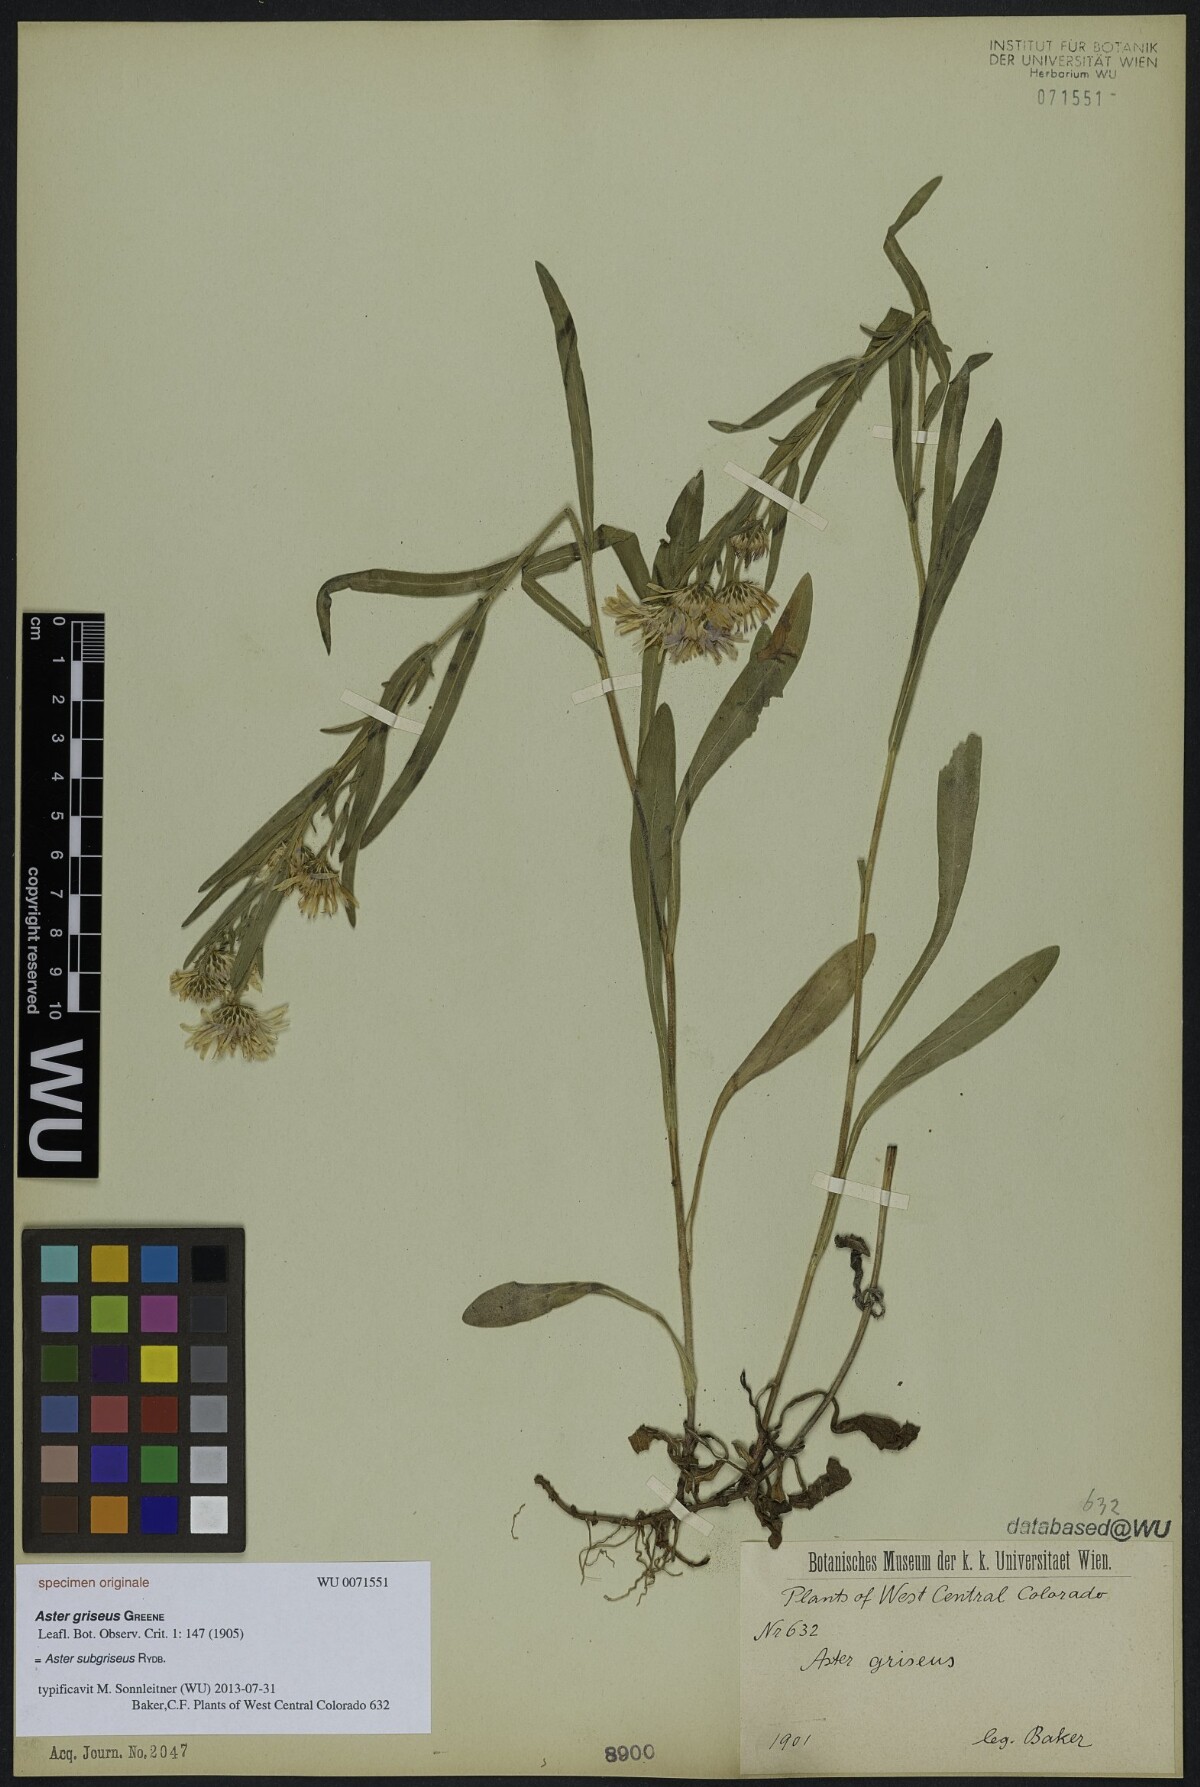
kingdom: Plantae
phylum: Tracheophyta
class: Magnoliopsida
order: Asterales
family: Asteraceae
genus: Symphyotrichum
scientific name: Symphyotrichum ascendens
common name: Intermountain aster
